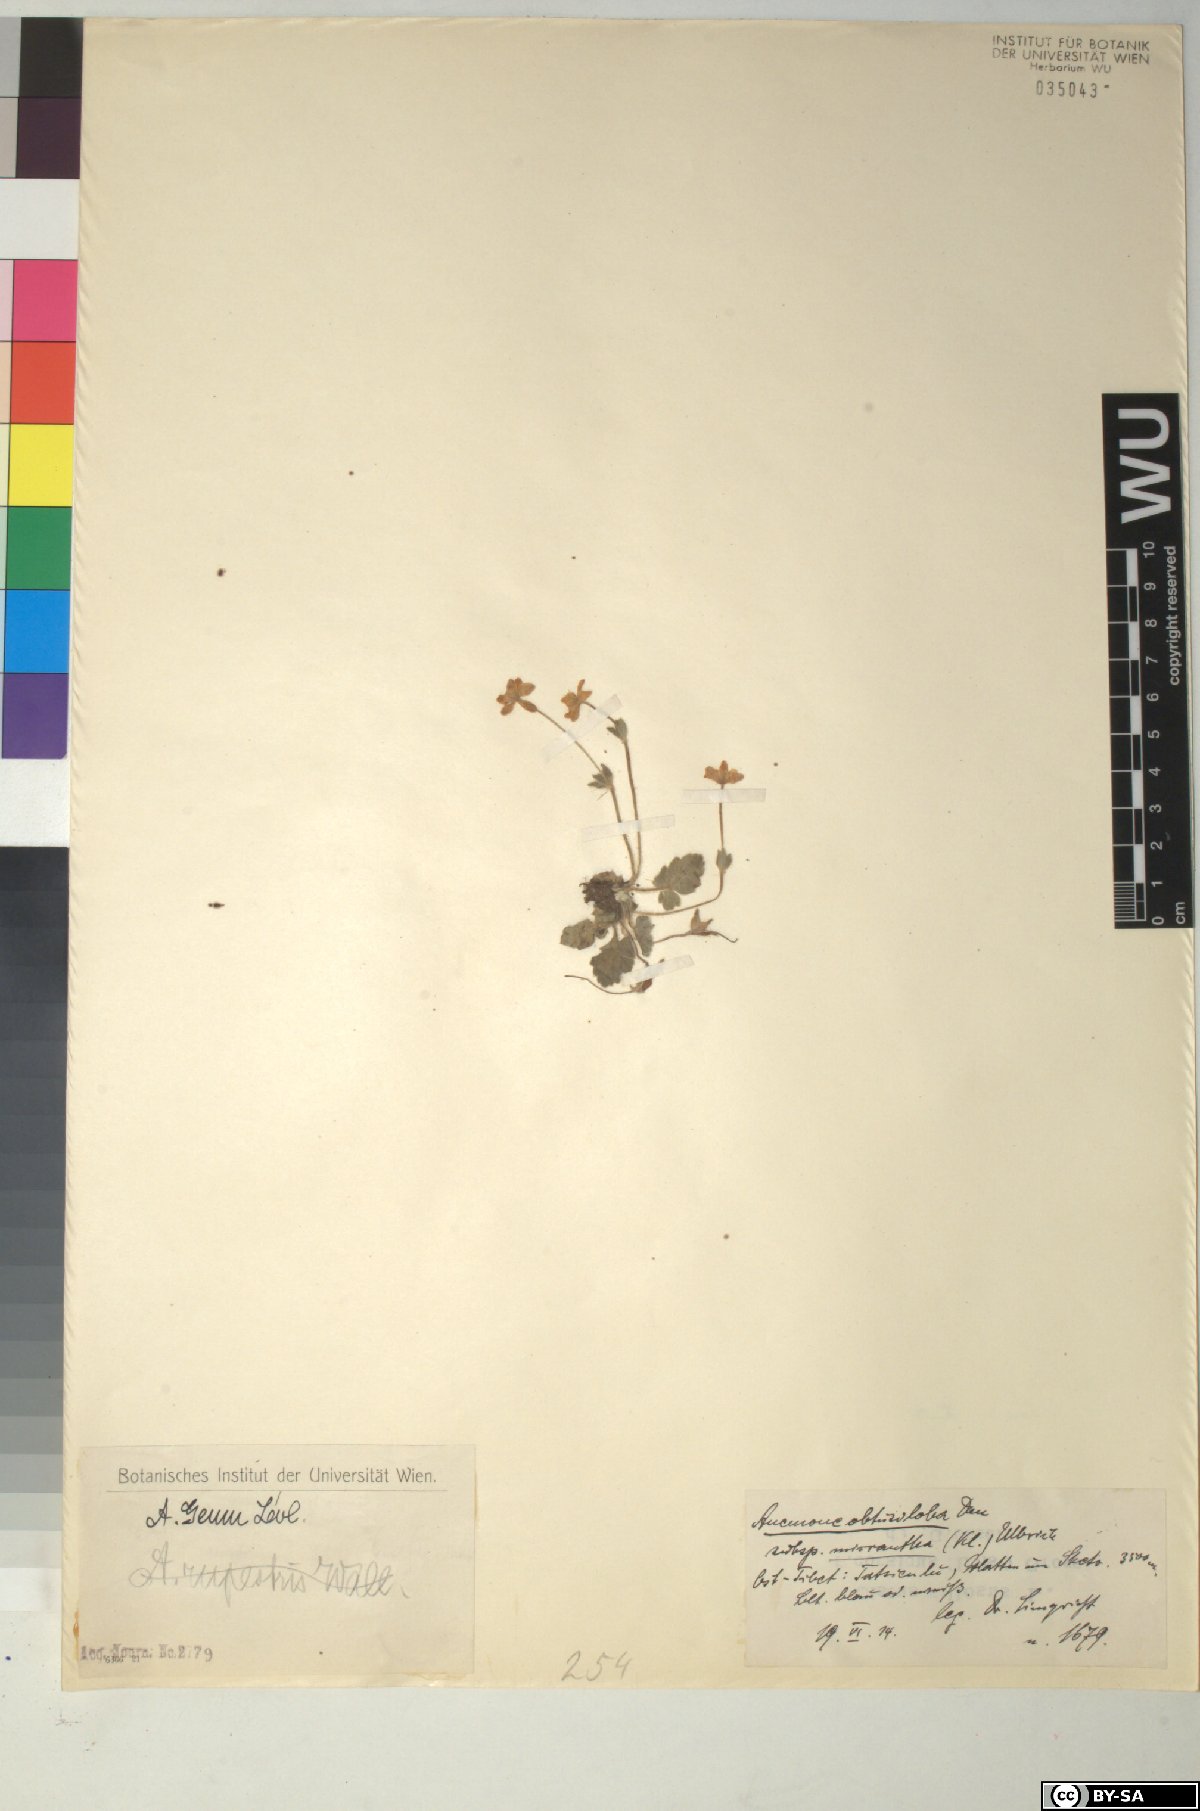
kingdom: Plantae
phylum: Tracheophyta
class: Magnoliopsida
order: Ranunculales
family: Ranunculaceae
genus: Anemonastrum
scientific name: Anemonastrum geum
